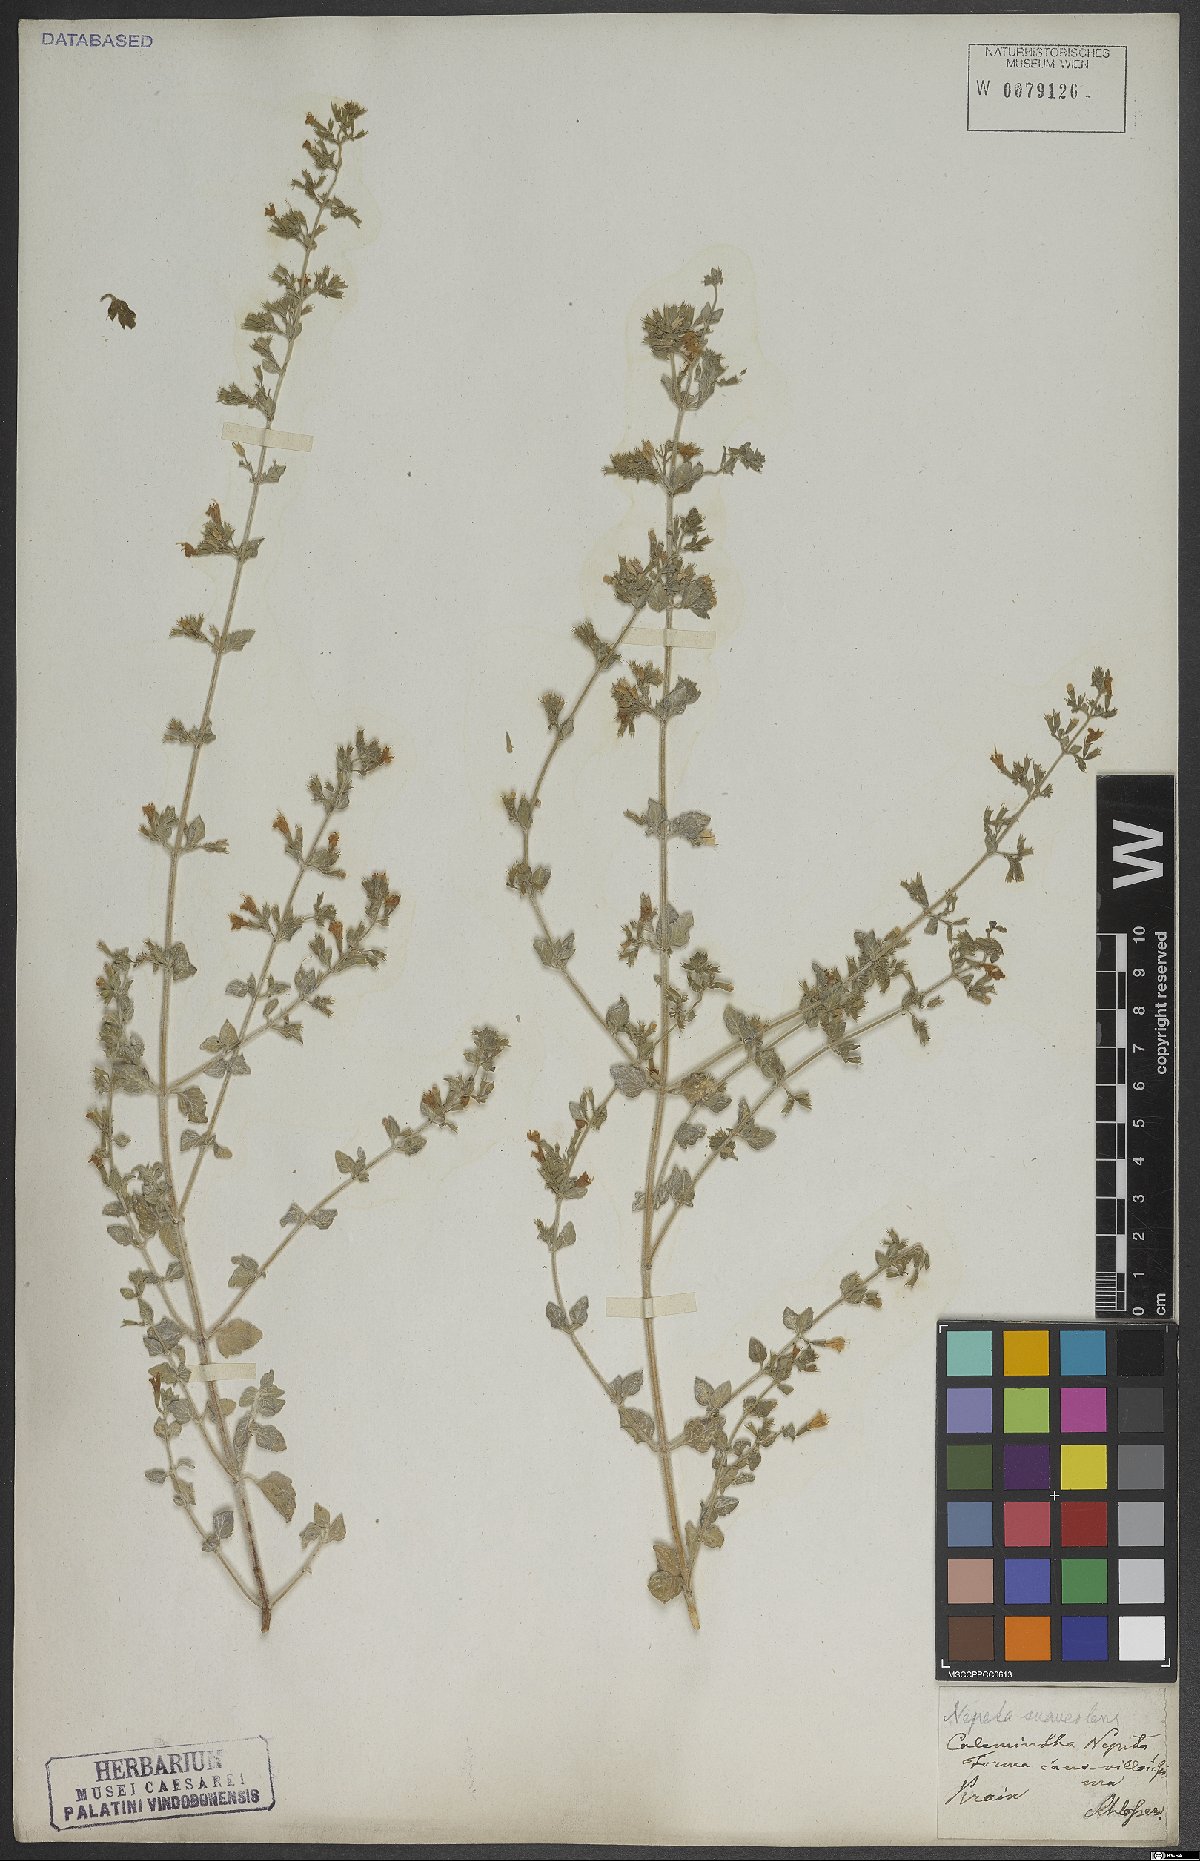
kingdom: Plantae
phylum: Tracheophyta
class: Magnoliopsida
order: Lamiales
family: Lamiaceae
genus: Clinopodium
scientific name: Clinopodium nepeta
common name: Lesser calamint
